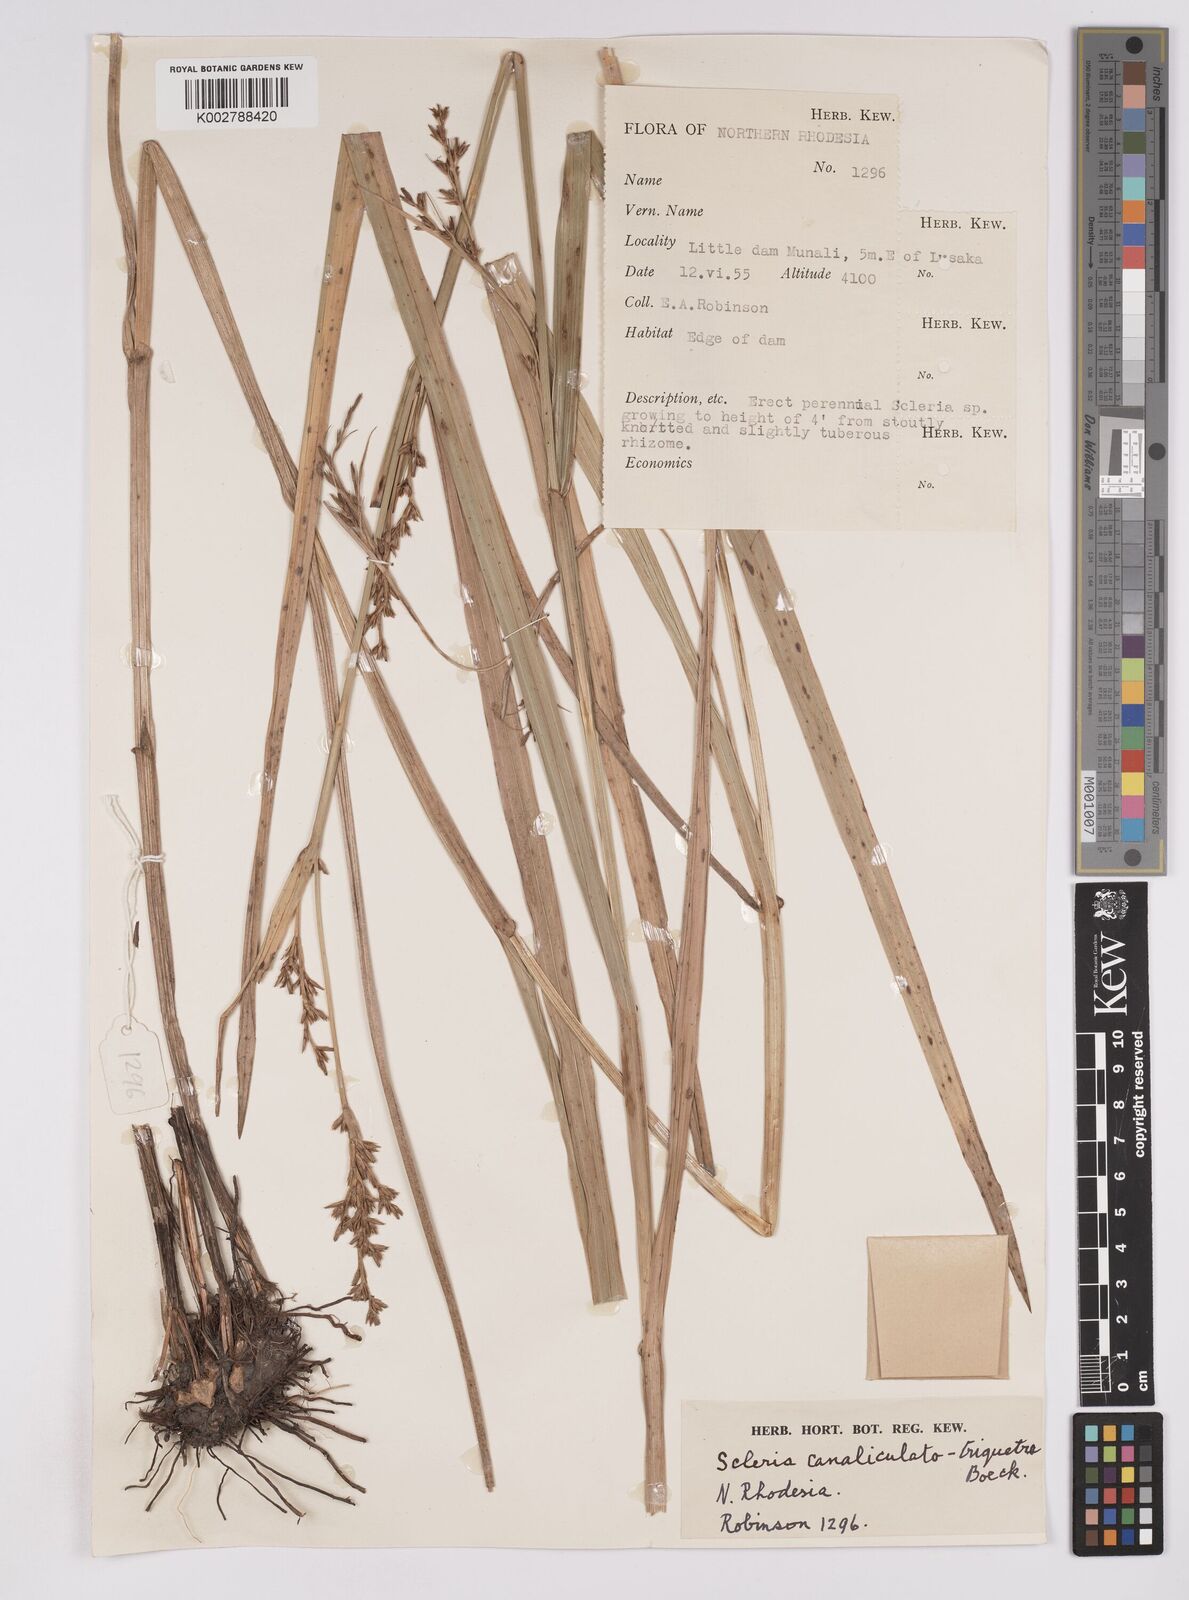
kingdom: Plantae
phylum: Tracheophyta
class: Liliopsida
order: Poales
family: Cyperaceae
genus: Scleria
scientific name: Scleria lagoensis
